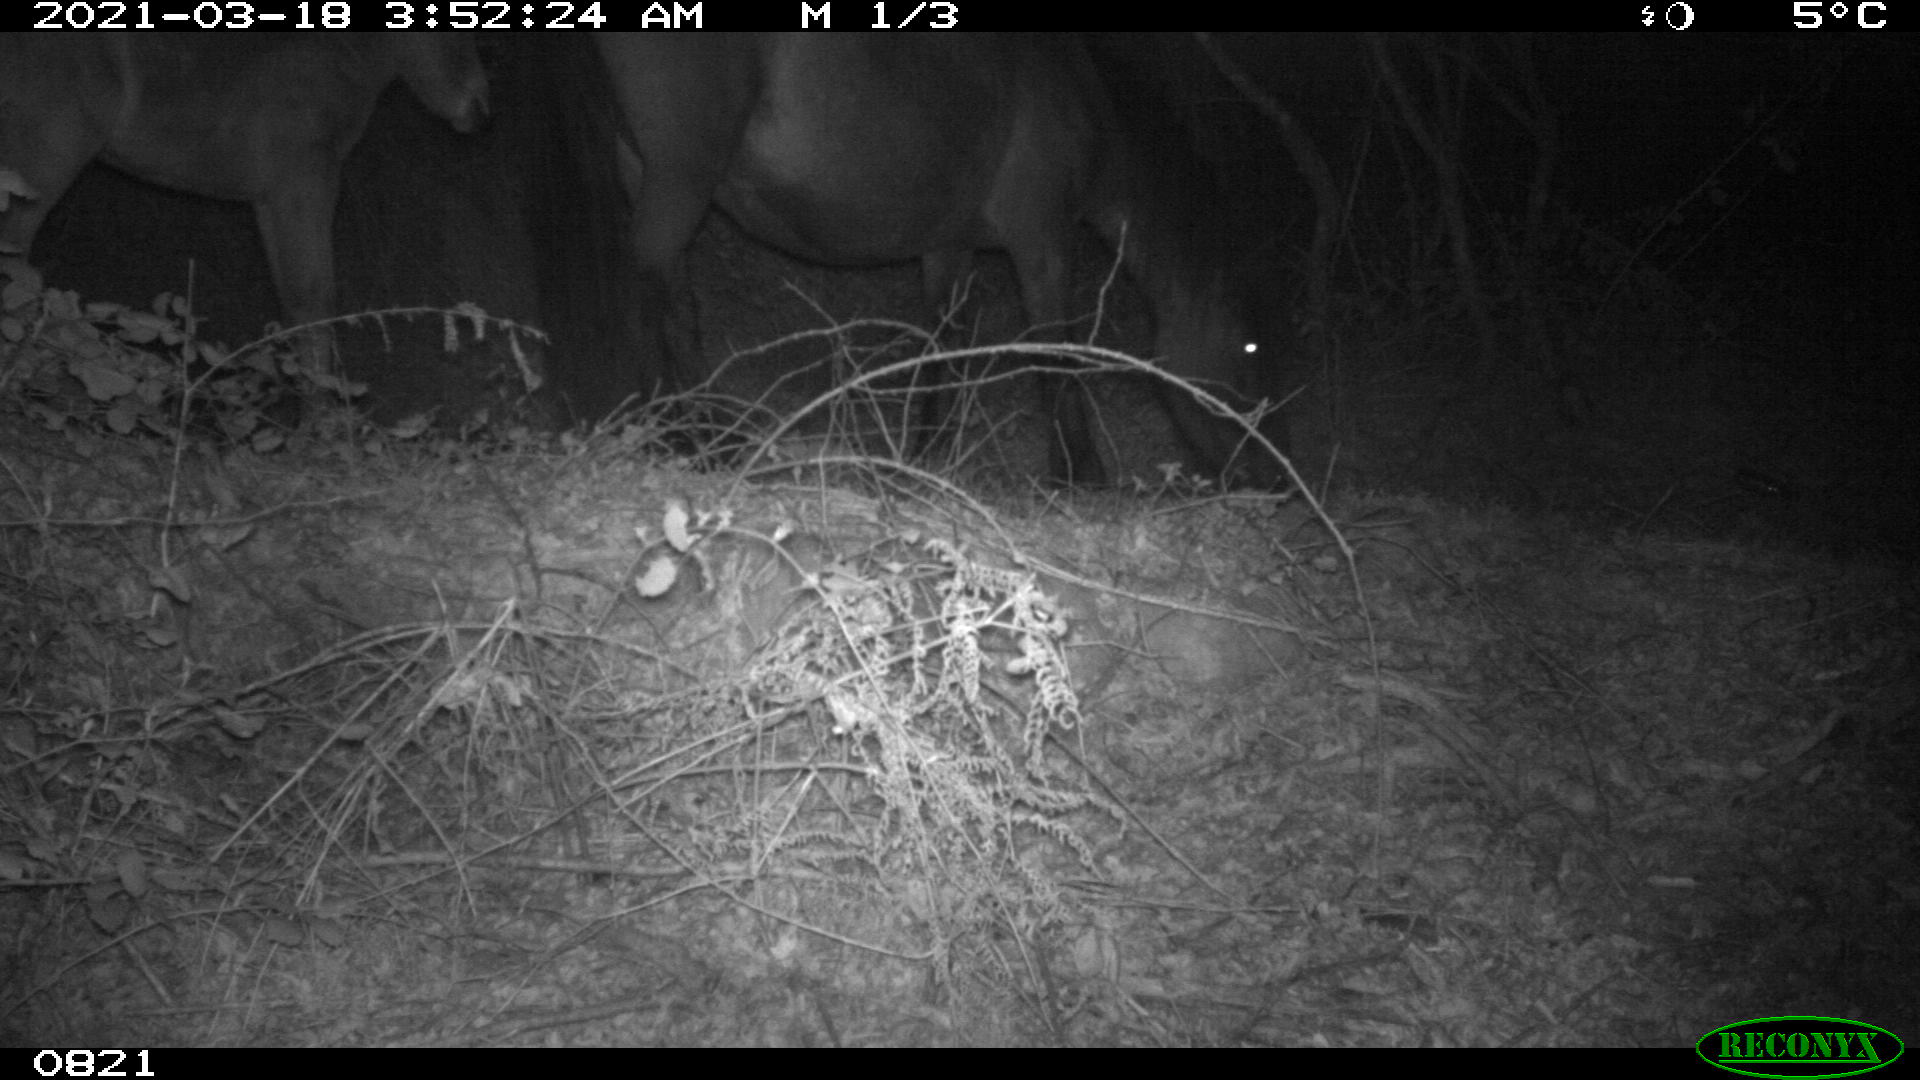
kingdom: Animalia
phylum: Chordata
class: Mammalia
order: Perissodactyla
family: Equidae
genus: Equus
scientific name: Equus caballus
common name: Horse
